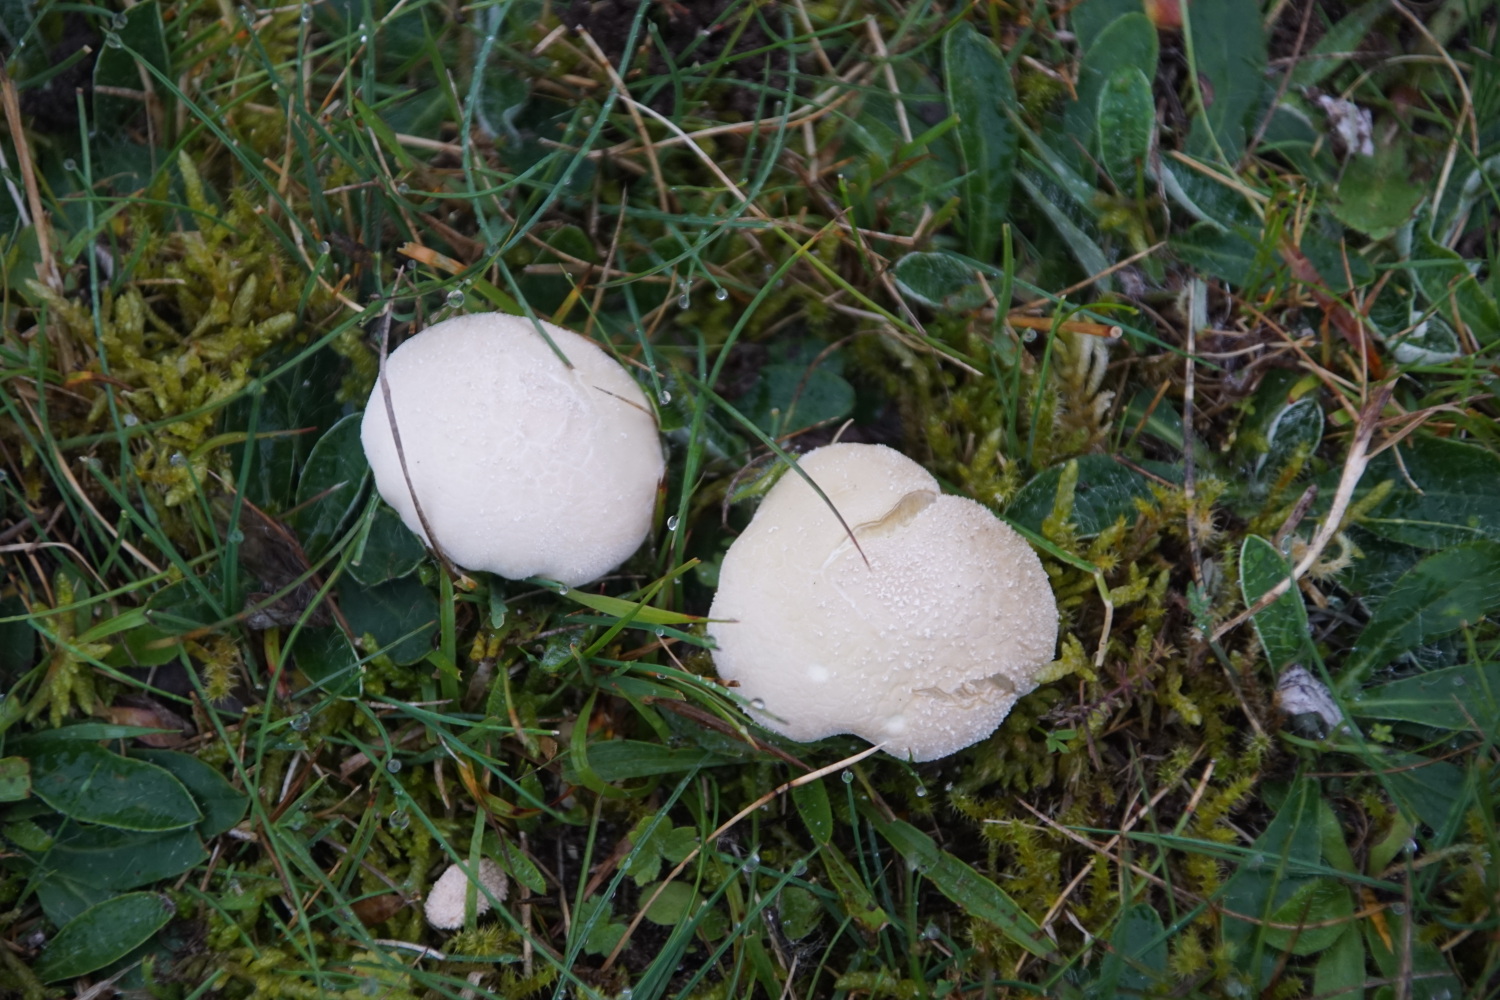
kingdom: Fungi
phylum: Basidiomycota
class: Agaricomycetes
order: Agaricales
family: Lycoperdaceae
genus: Lycoperdon
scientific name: Lycoperdon pratense
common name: flad støvbold
